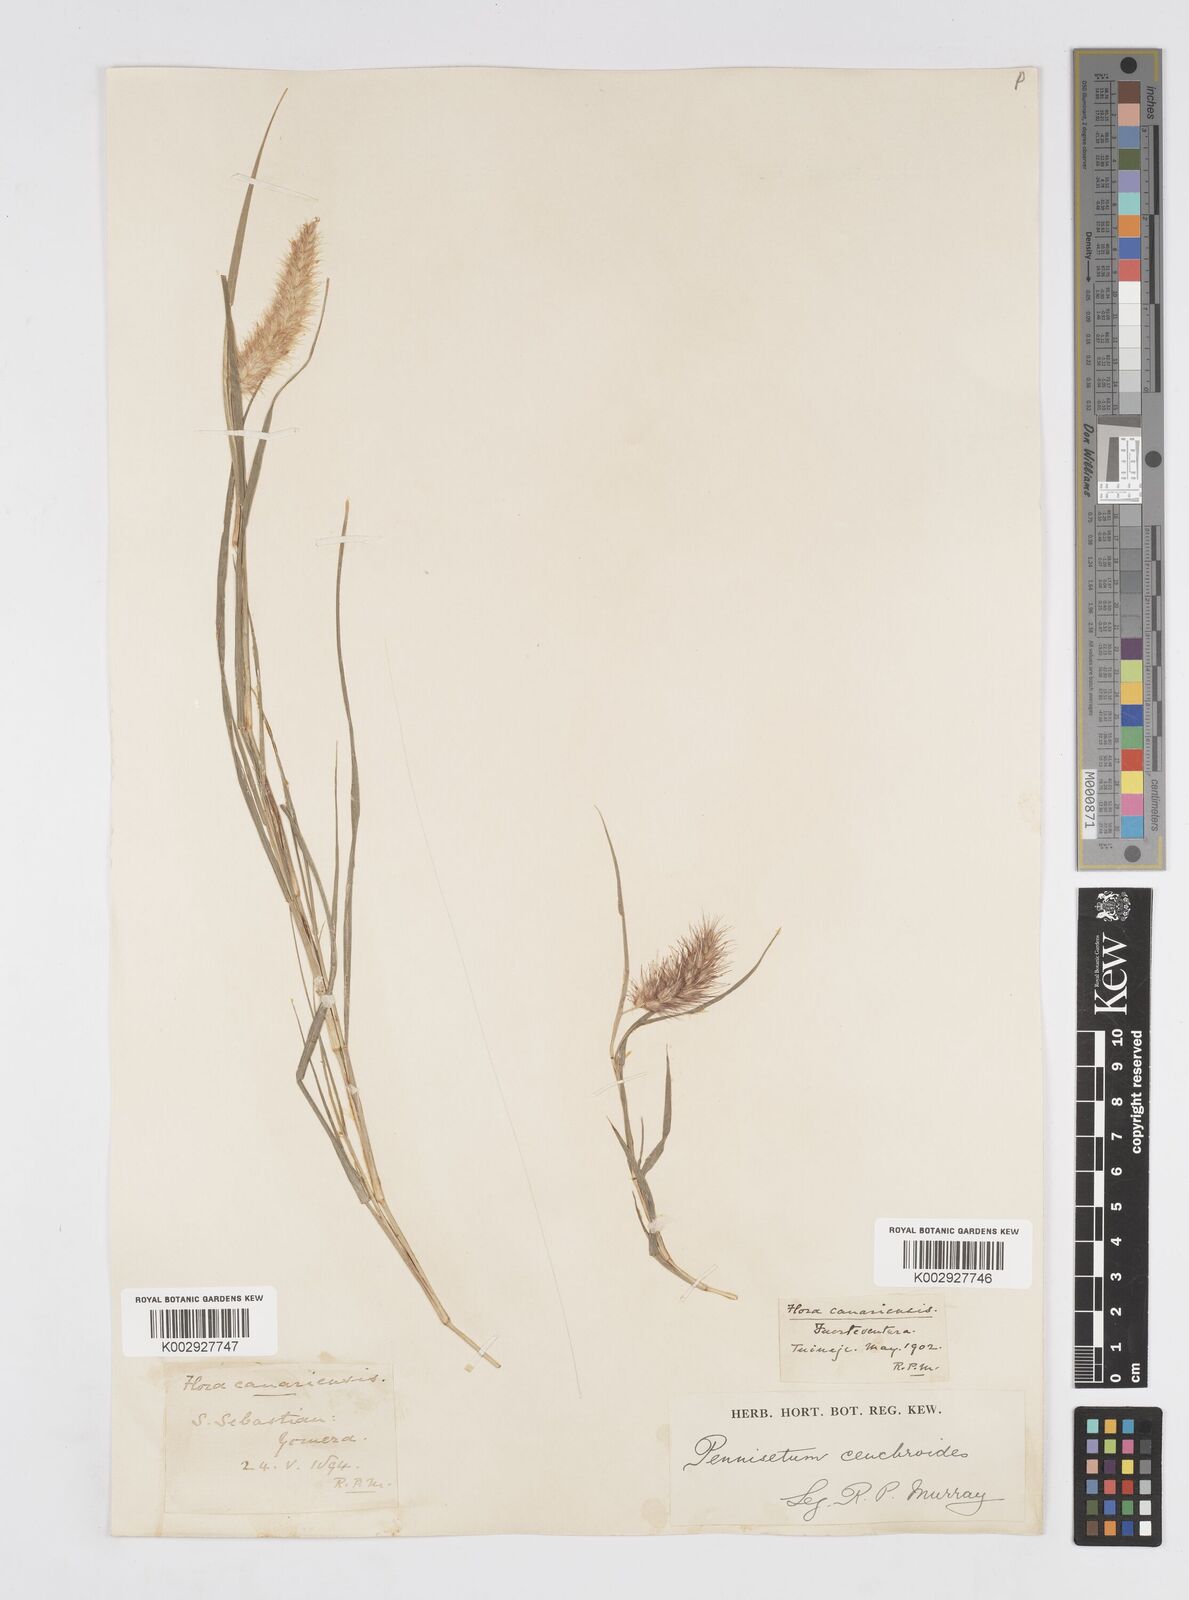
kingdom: Plantae
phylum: Tracheophyta
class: Liliopsida
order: Poales
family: Poaceae
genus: Cenchrus
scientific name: Cenchrus
